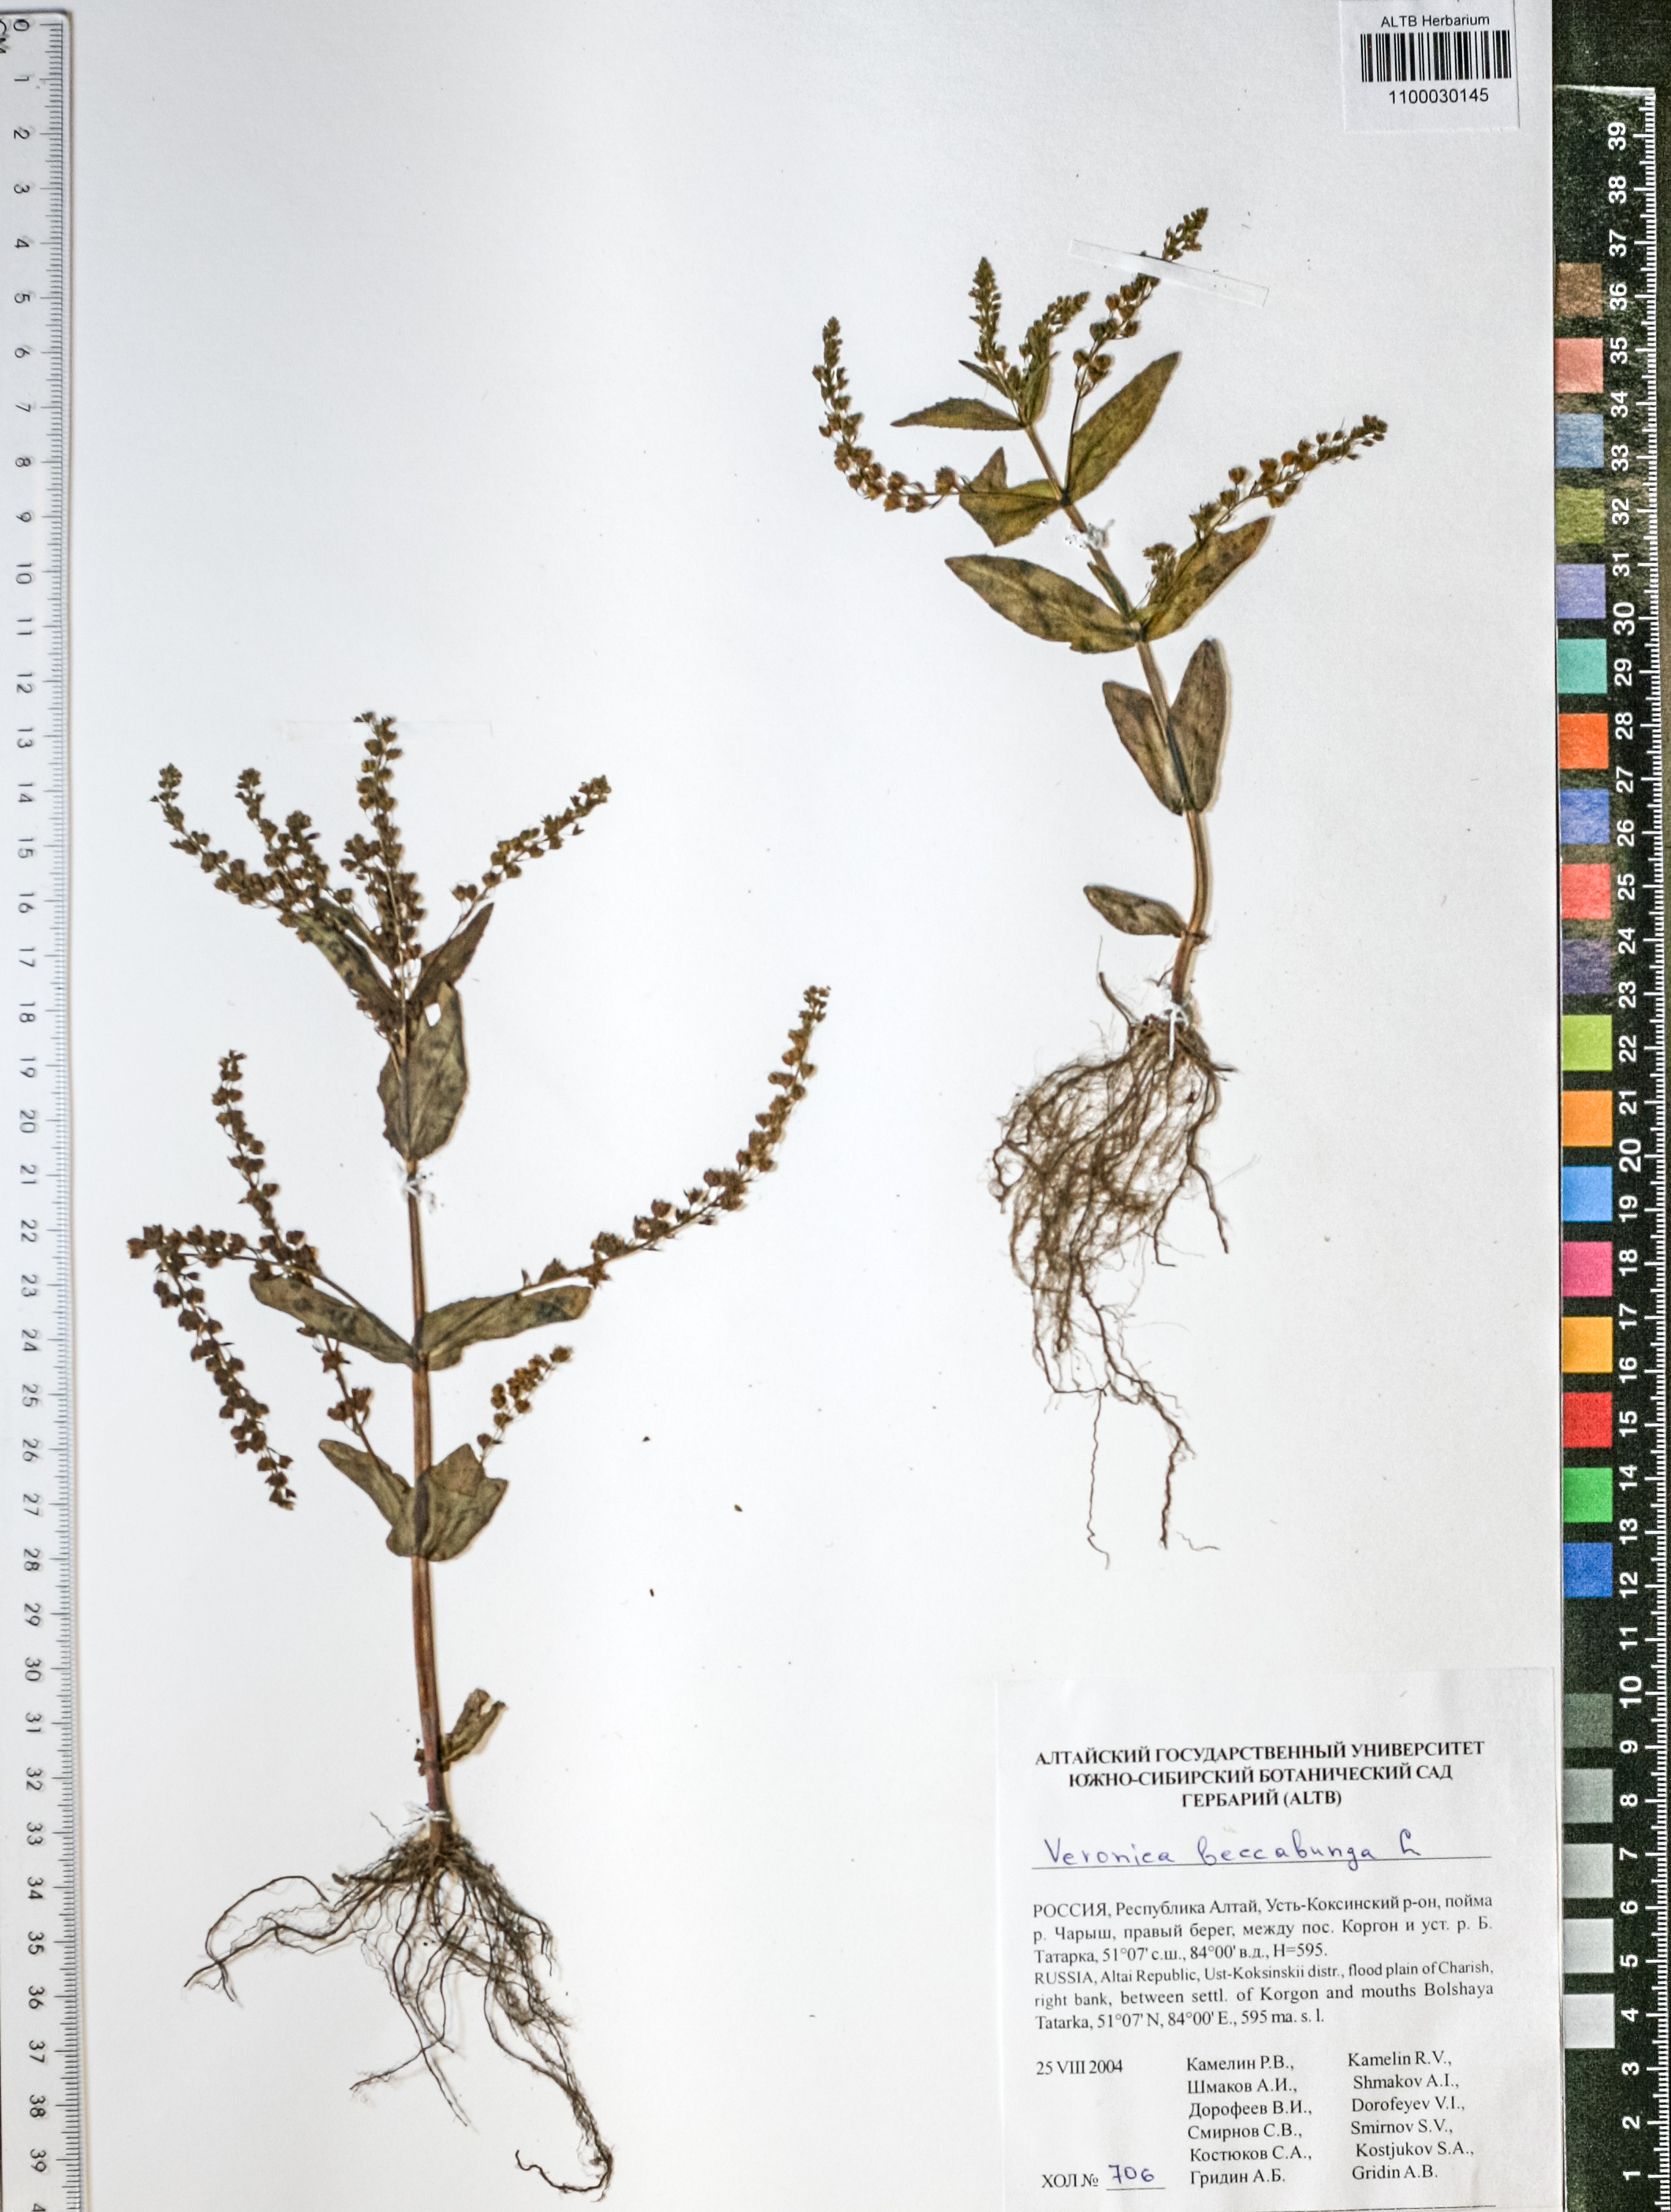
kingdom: Plantae
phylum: Tracheophyta
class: Magnoliopsida
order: Lamiales
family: Plantaginaceae
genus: Veronica
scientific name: Veronica beccabunga
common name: Brooklime
